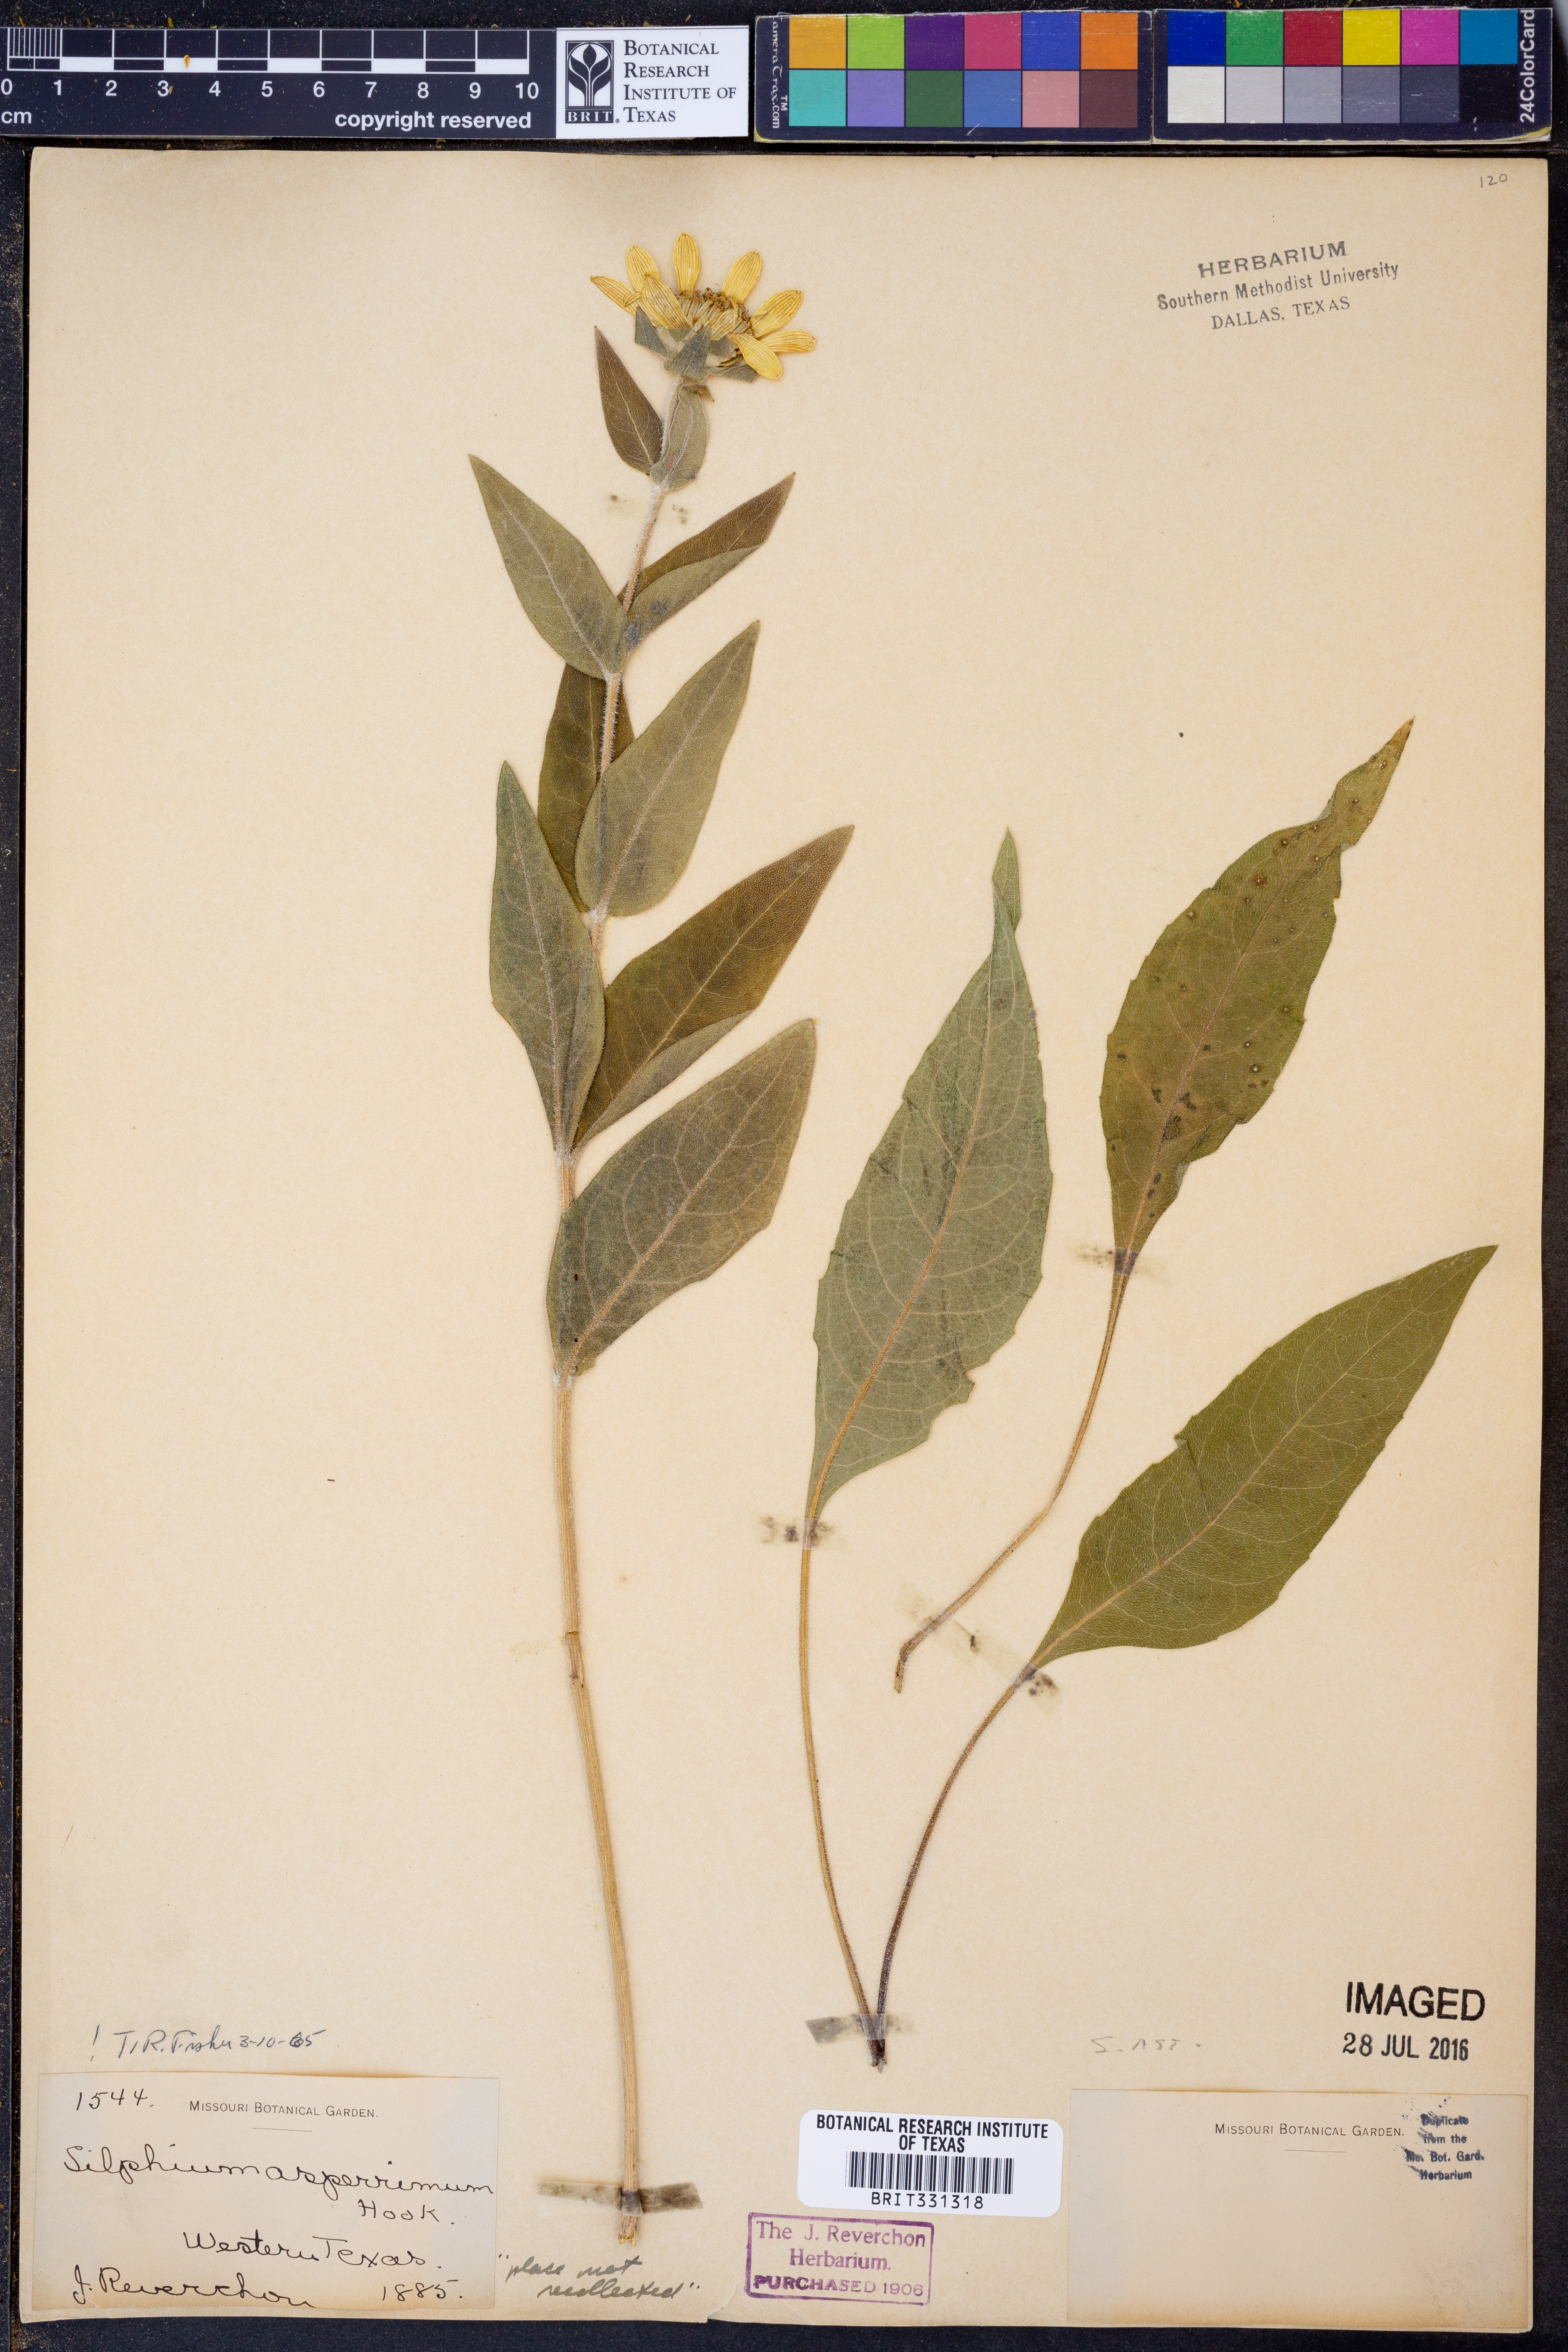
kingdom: Plantae
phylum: Tracheophyta
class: Magnoliopsida
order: Asterales
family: Asteraceae
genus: Silphium
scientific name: Silphium asperrimum
